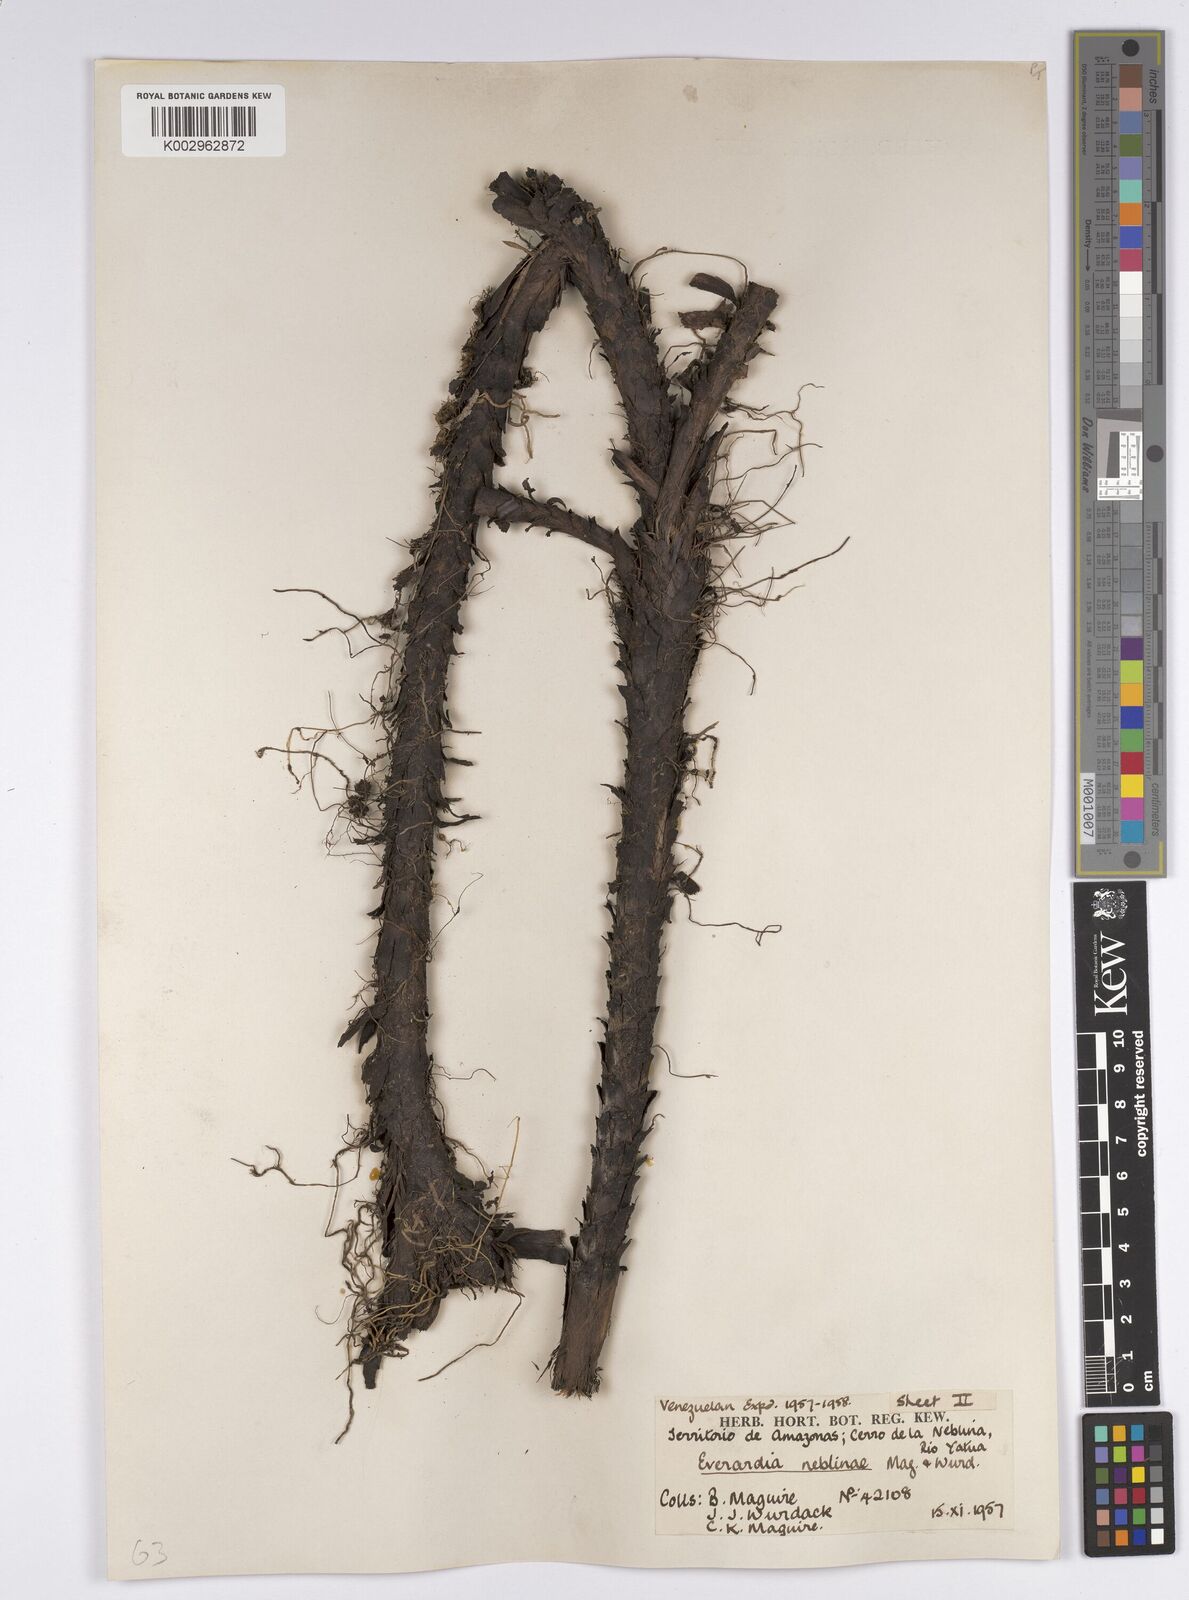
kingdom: Plantae
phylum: Tracheophyta
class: Liliopsida
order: Poales
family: Cyperaceae
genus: Everardia
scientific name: Everardia
